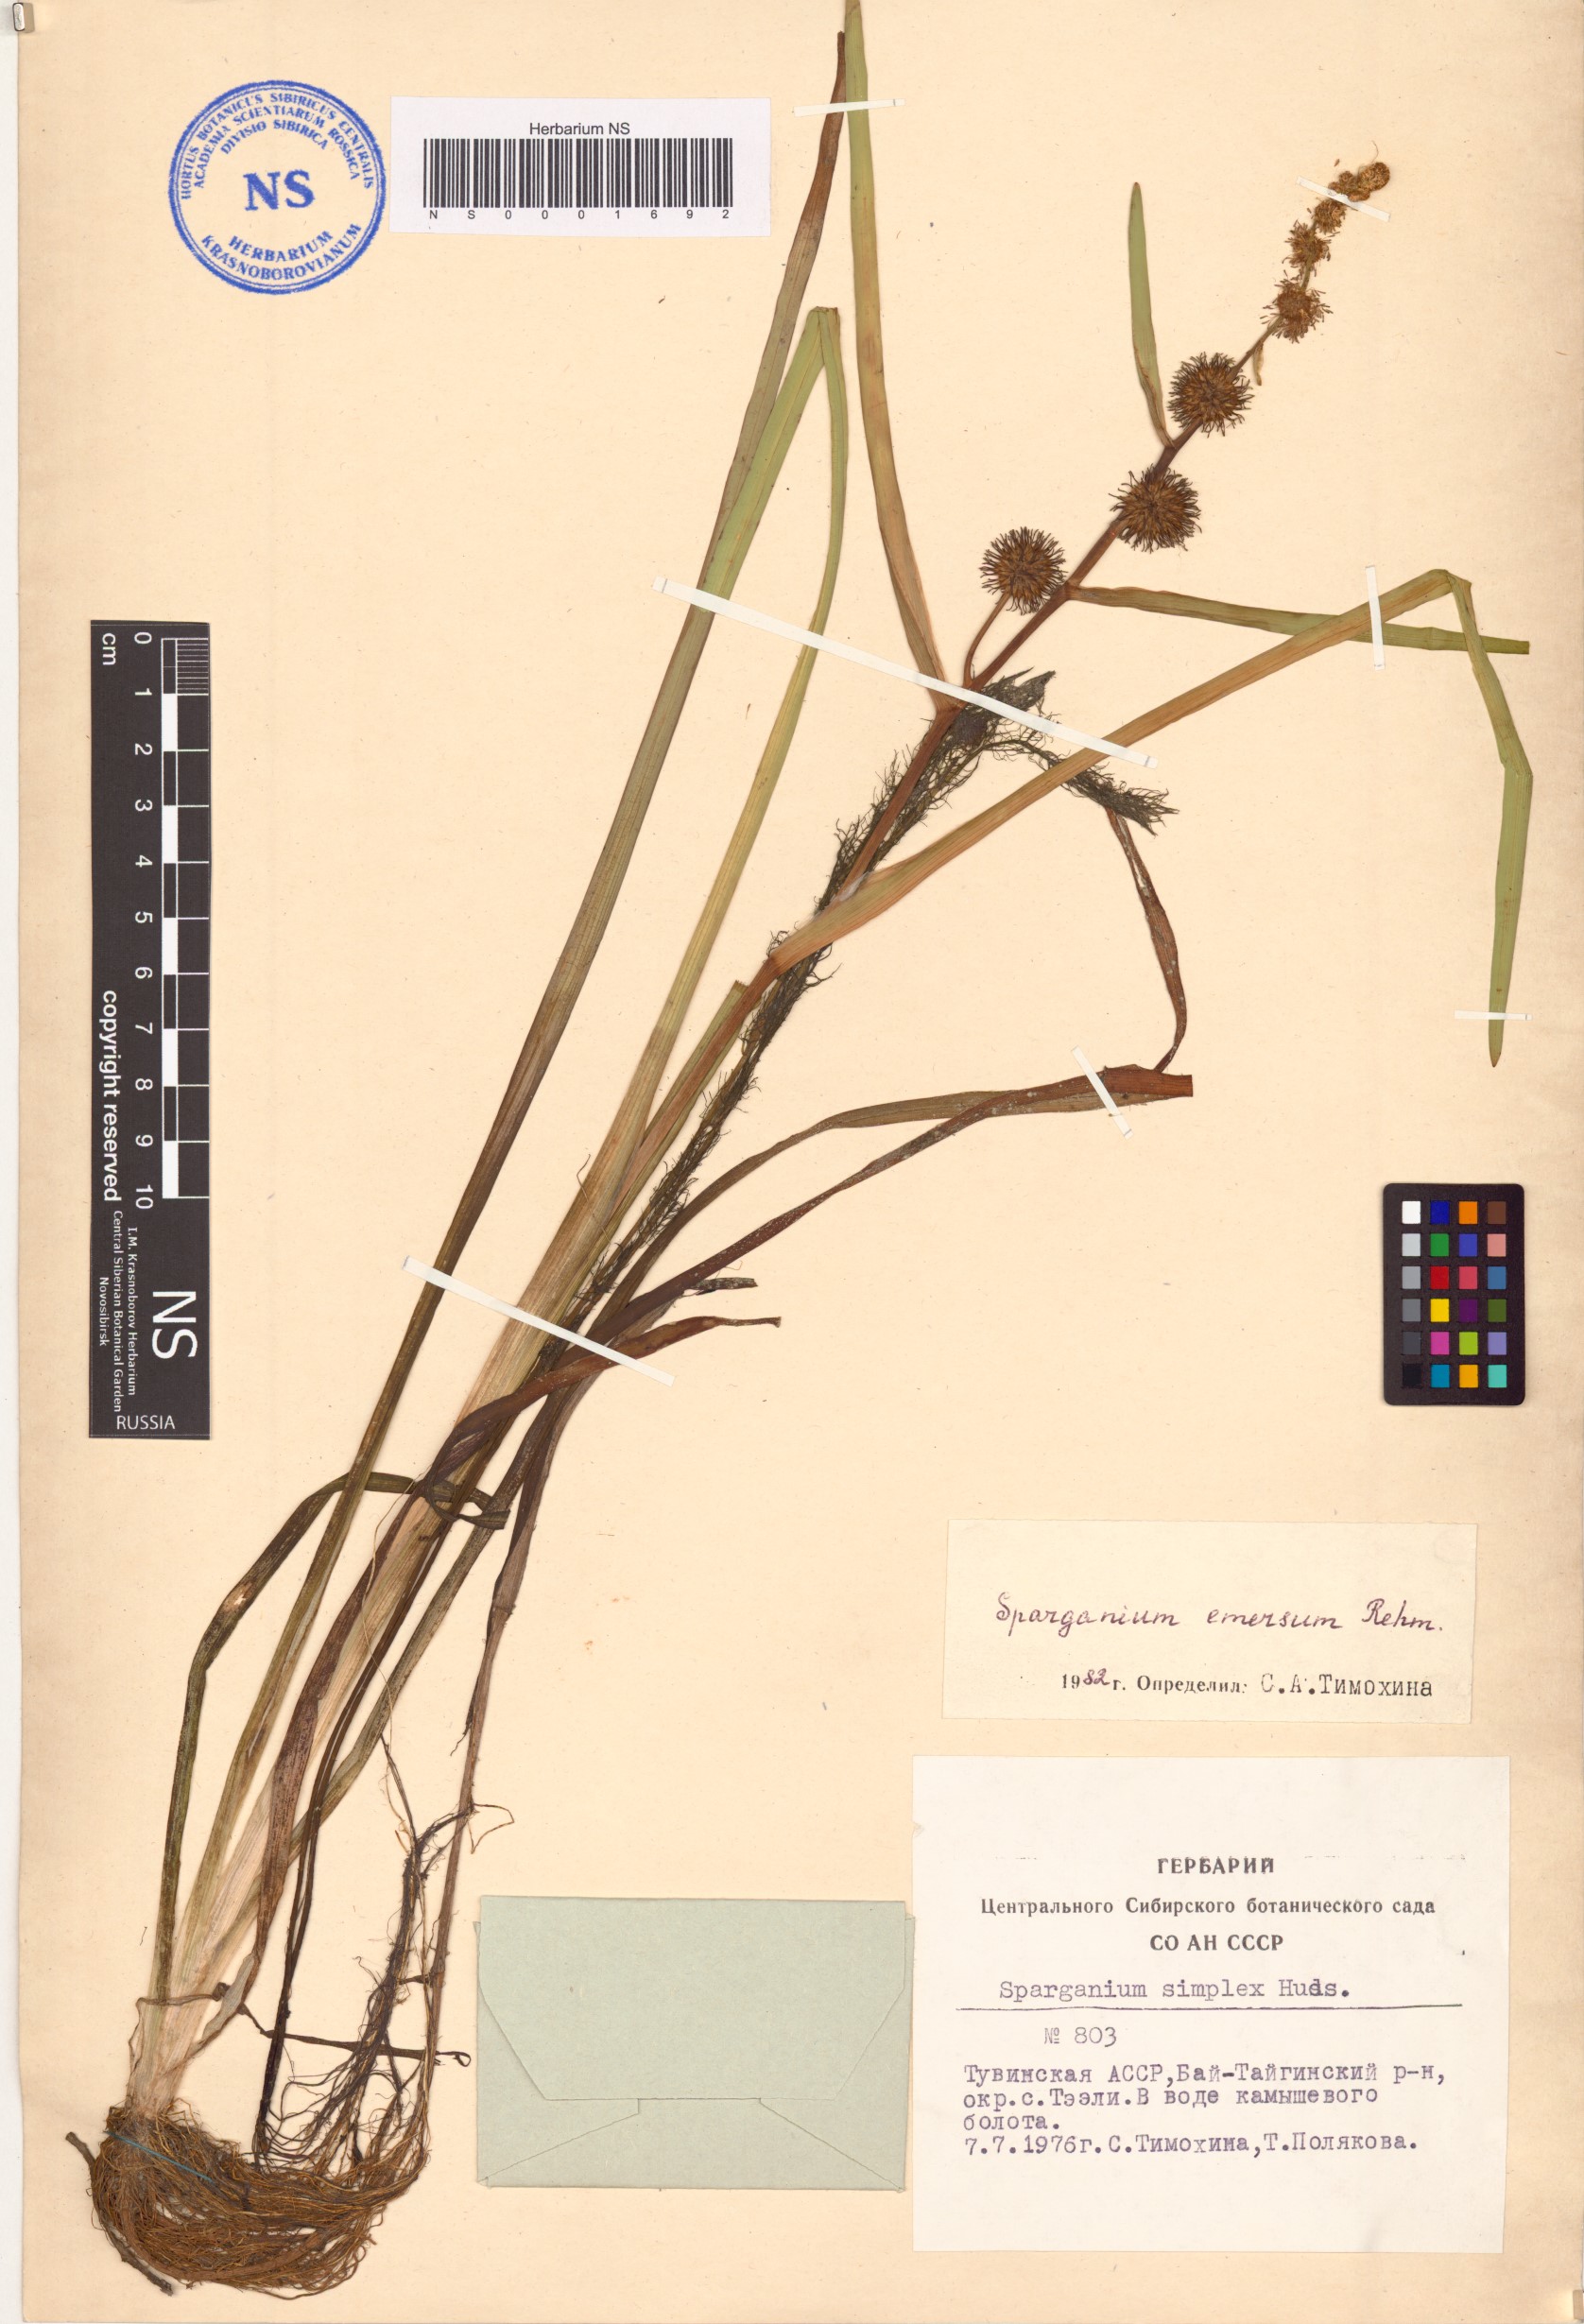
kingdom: Plantae
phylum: Tracheophyta
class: Liliopsida
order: Poales
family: Typhaceae
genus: Sparganium
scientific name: Sparganium emersum
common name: Unbranched bur-reed
